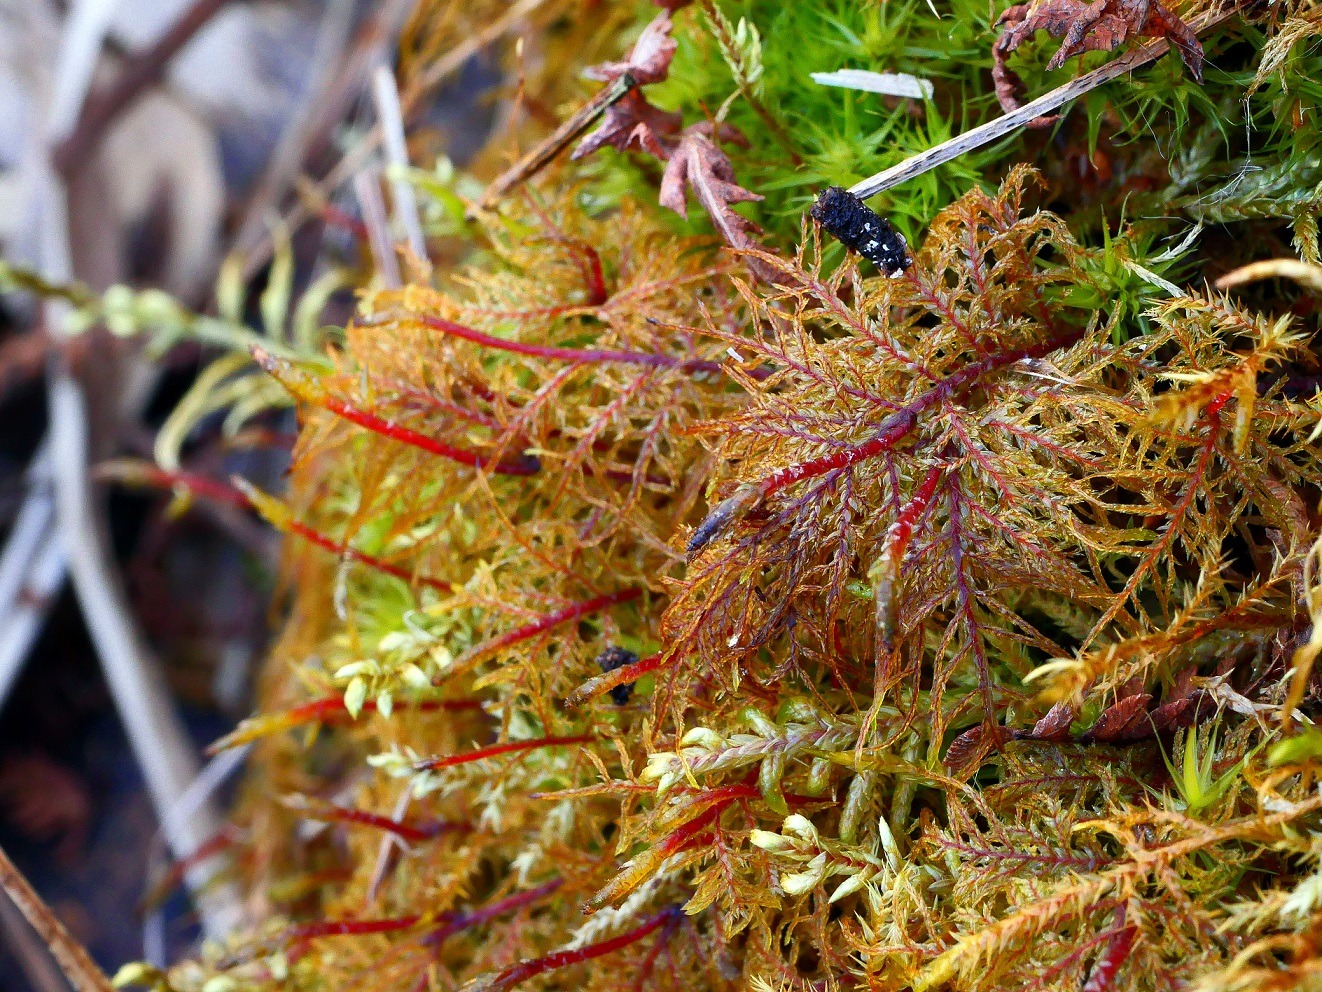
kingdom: Plantae
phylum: Bryophyta
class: Bryopsida
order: Hypnales
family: Hylocomiaceae
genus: Hylocomium
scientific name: Hylocomium splendens
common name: Almindelig etagemos
